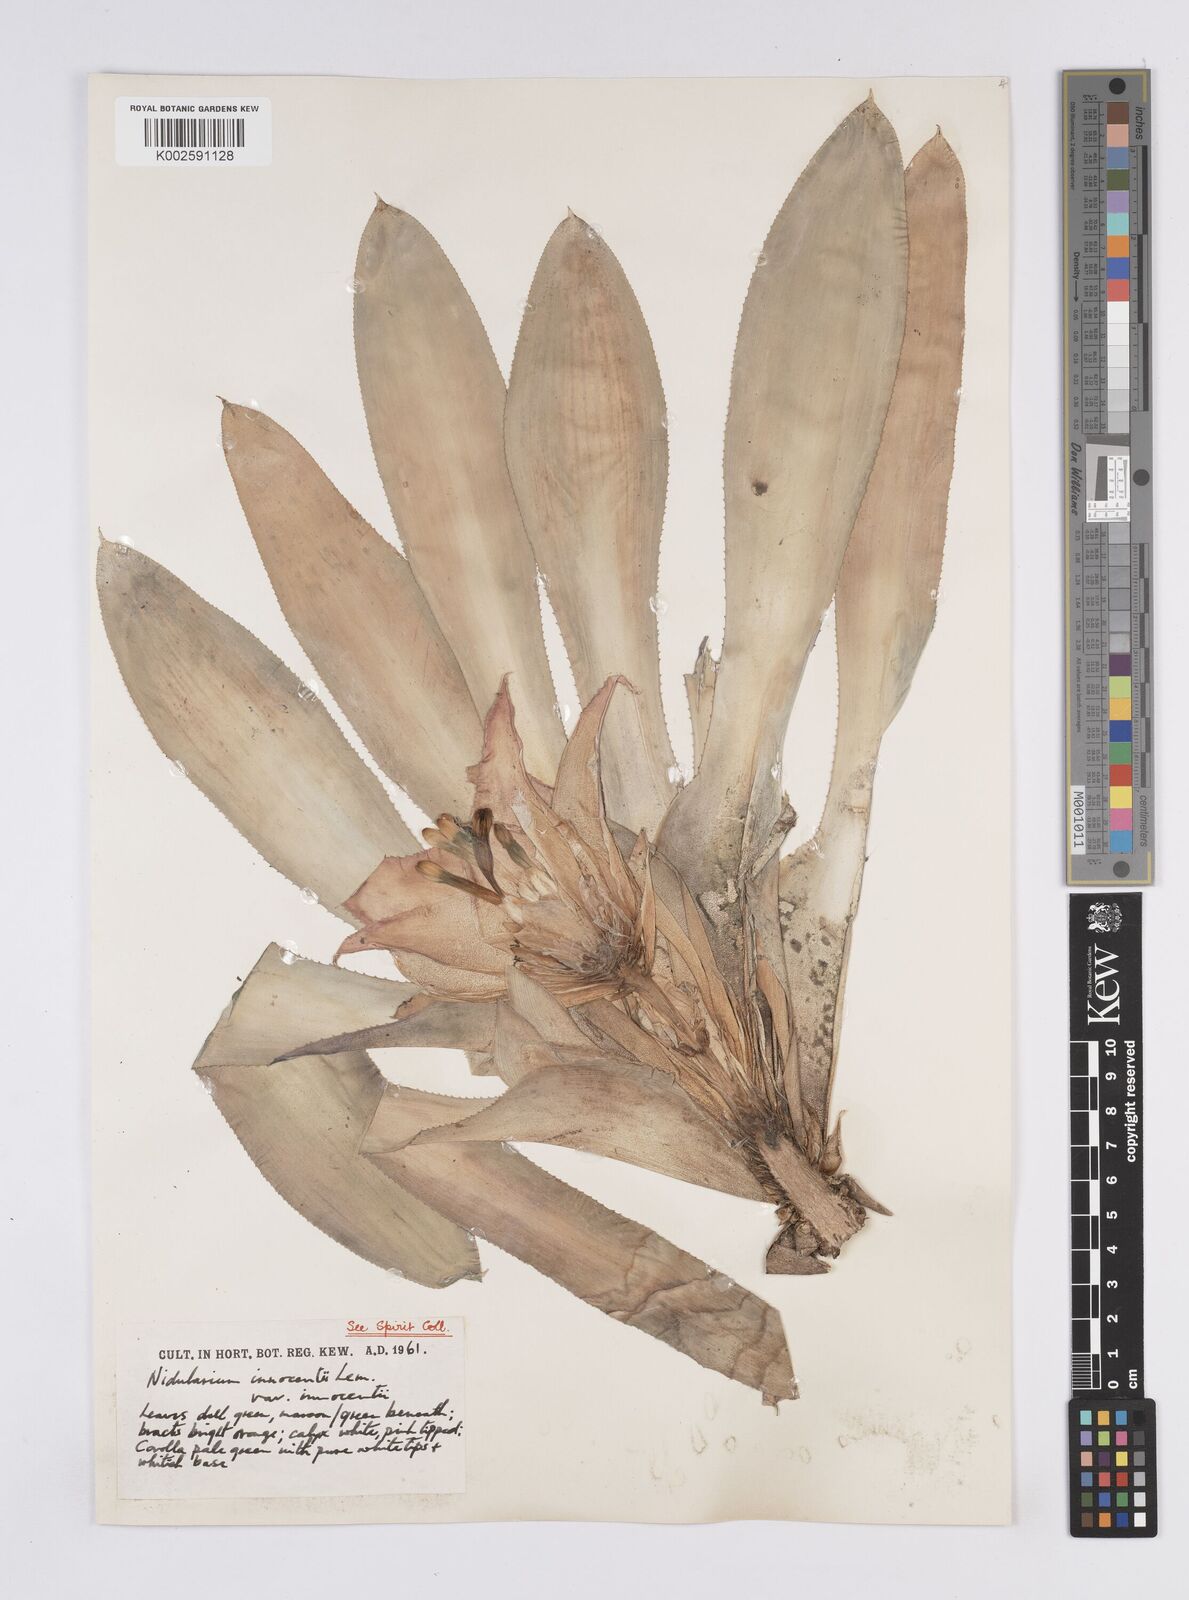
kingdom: Plantae
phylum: Tracheophyta
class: Liliopsida
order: Poales
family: Bromeliaceae
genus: Nidularium
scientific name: Nidularium innocentii
